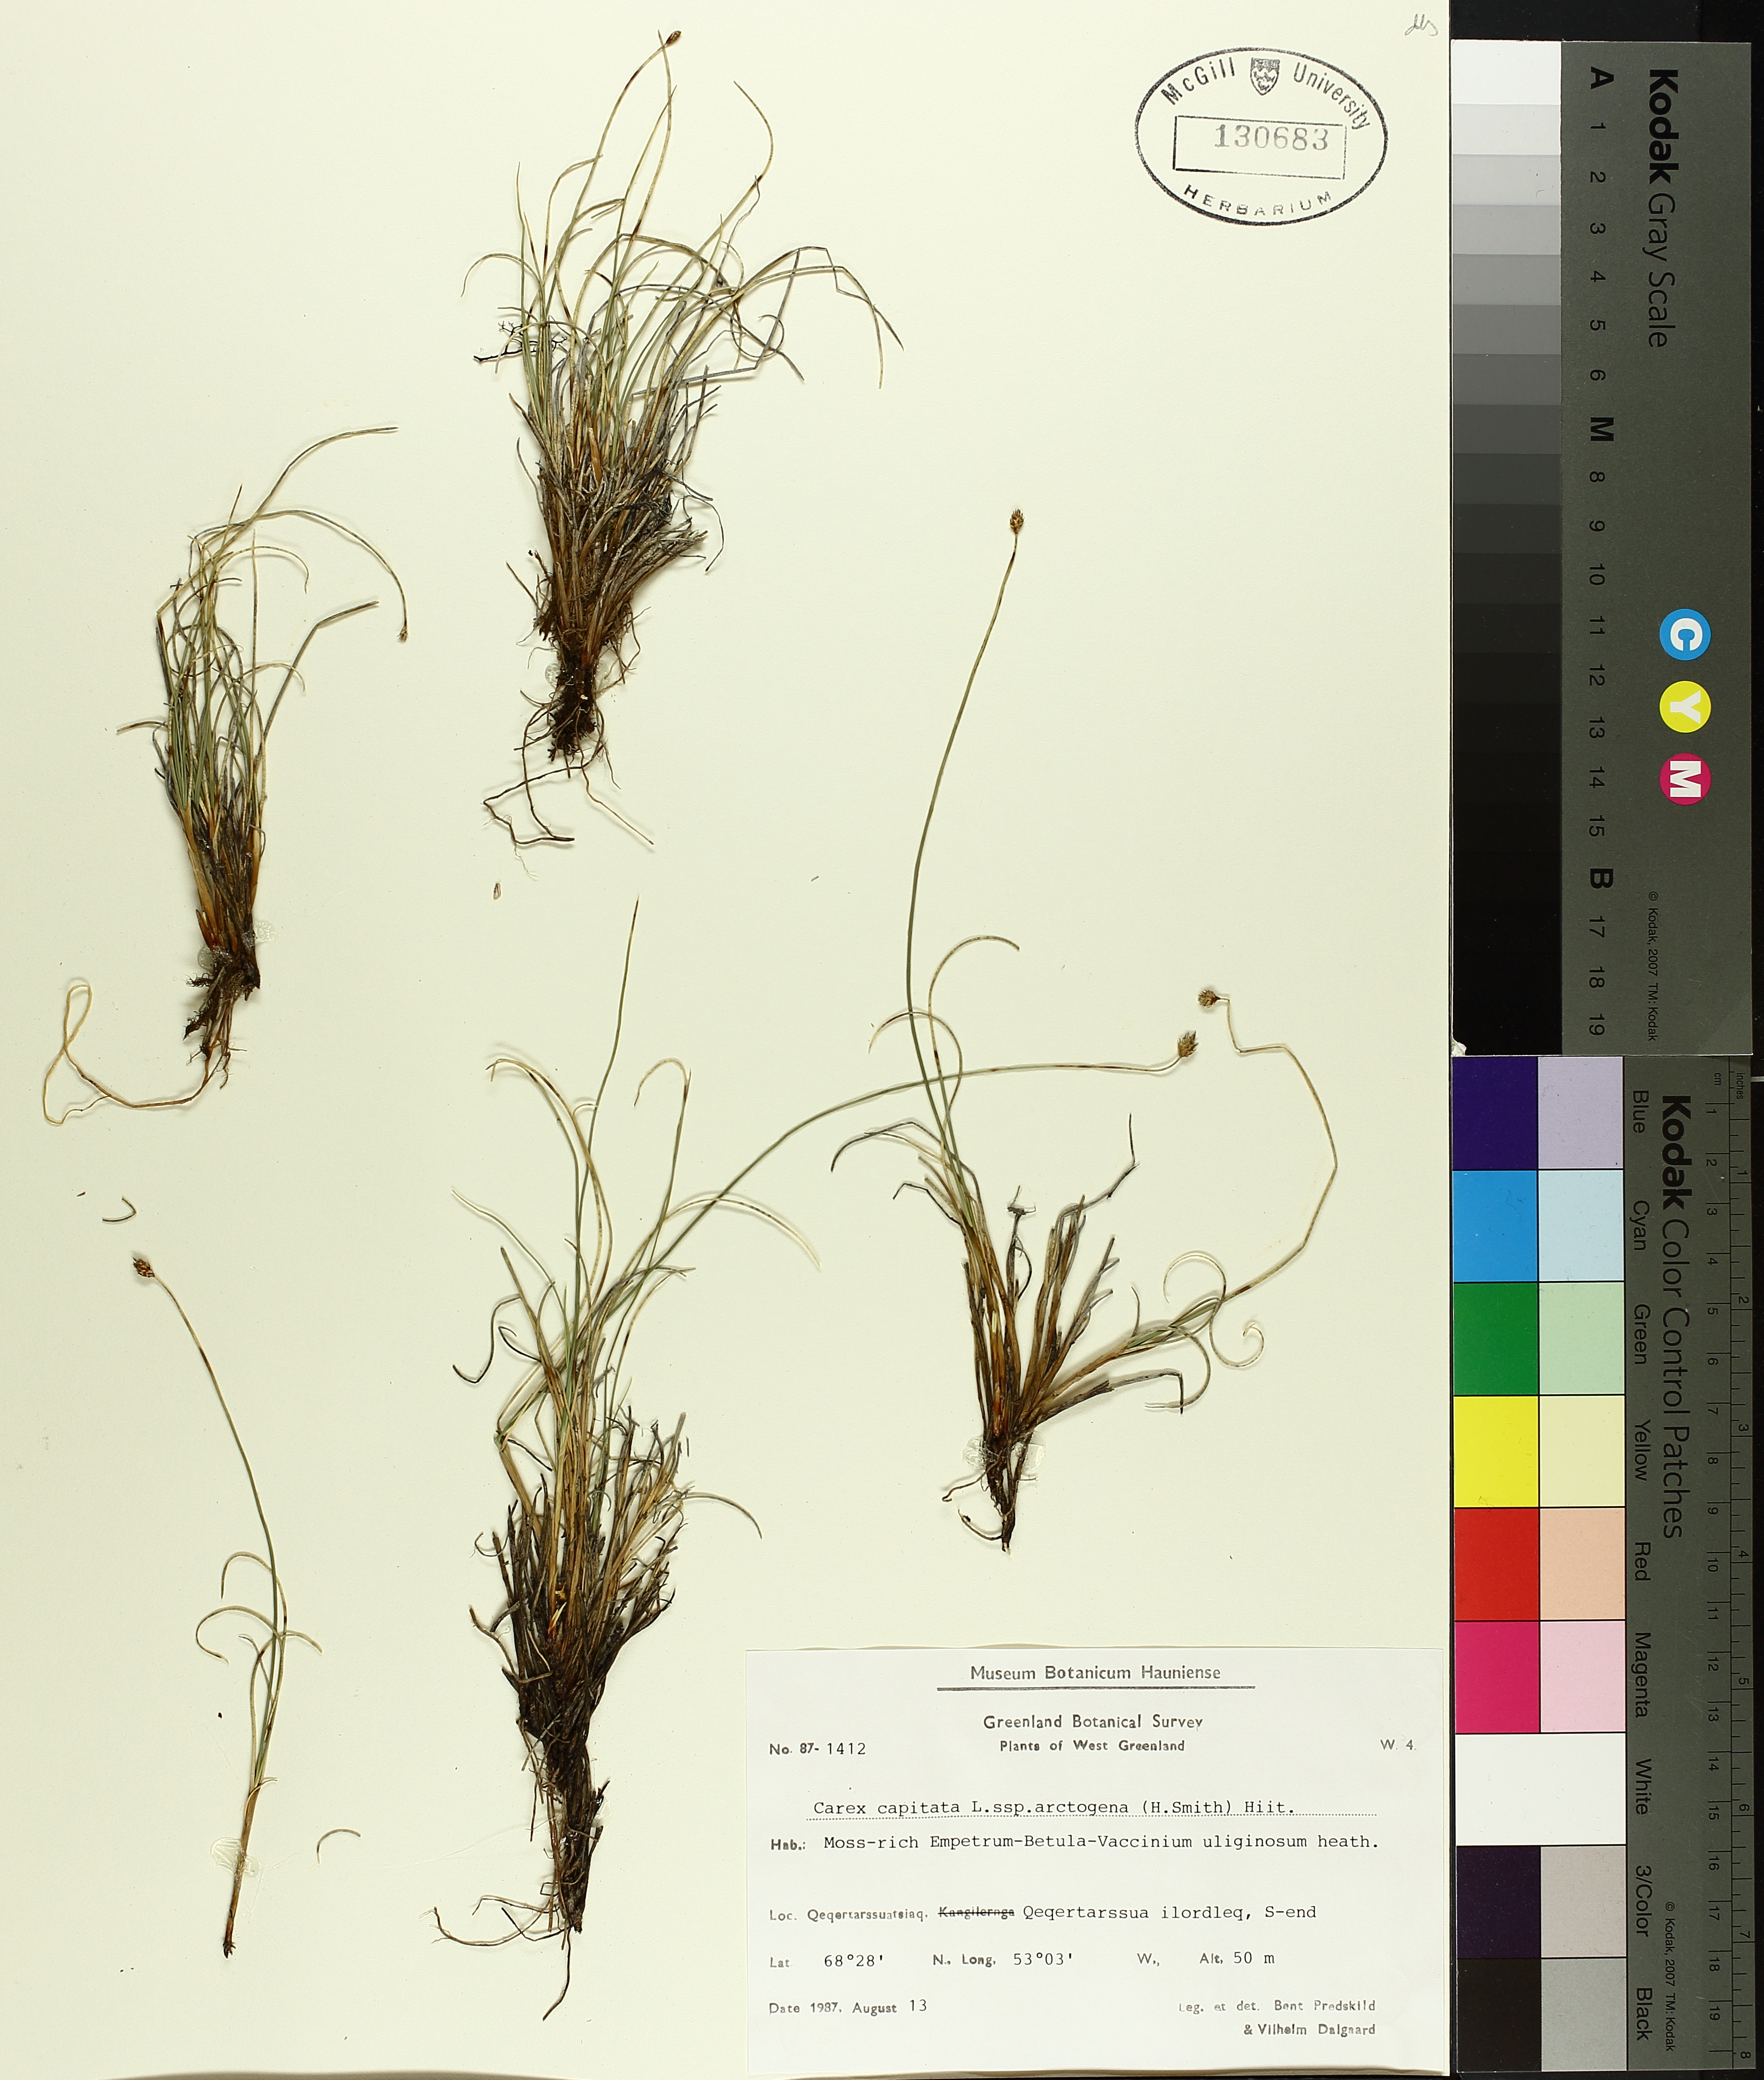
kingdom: Plantae
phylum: Tracheophyta
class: Liliopsida
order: Poales
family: Cyperaceae
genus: Carex
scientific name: Carex arctogena
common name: Black sedge
